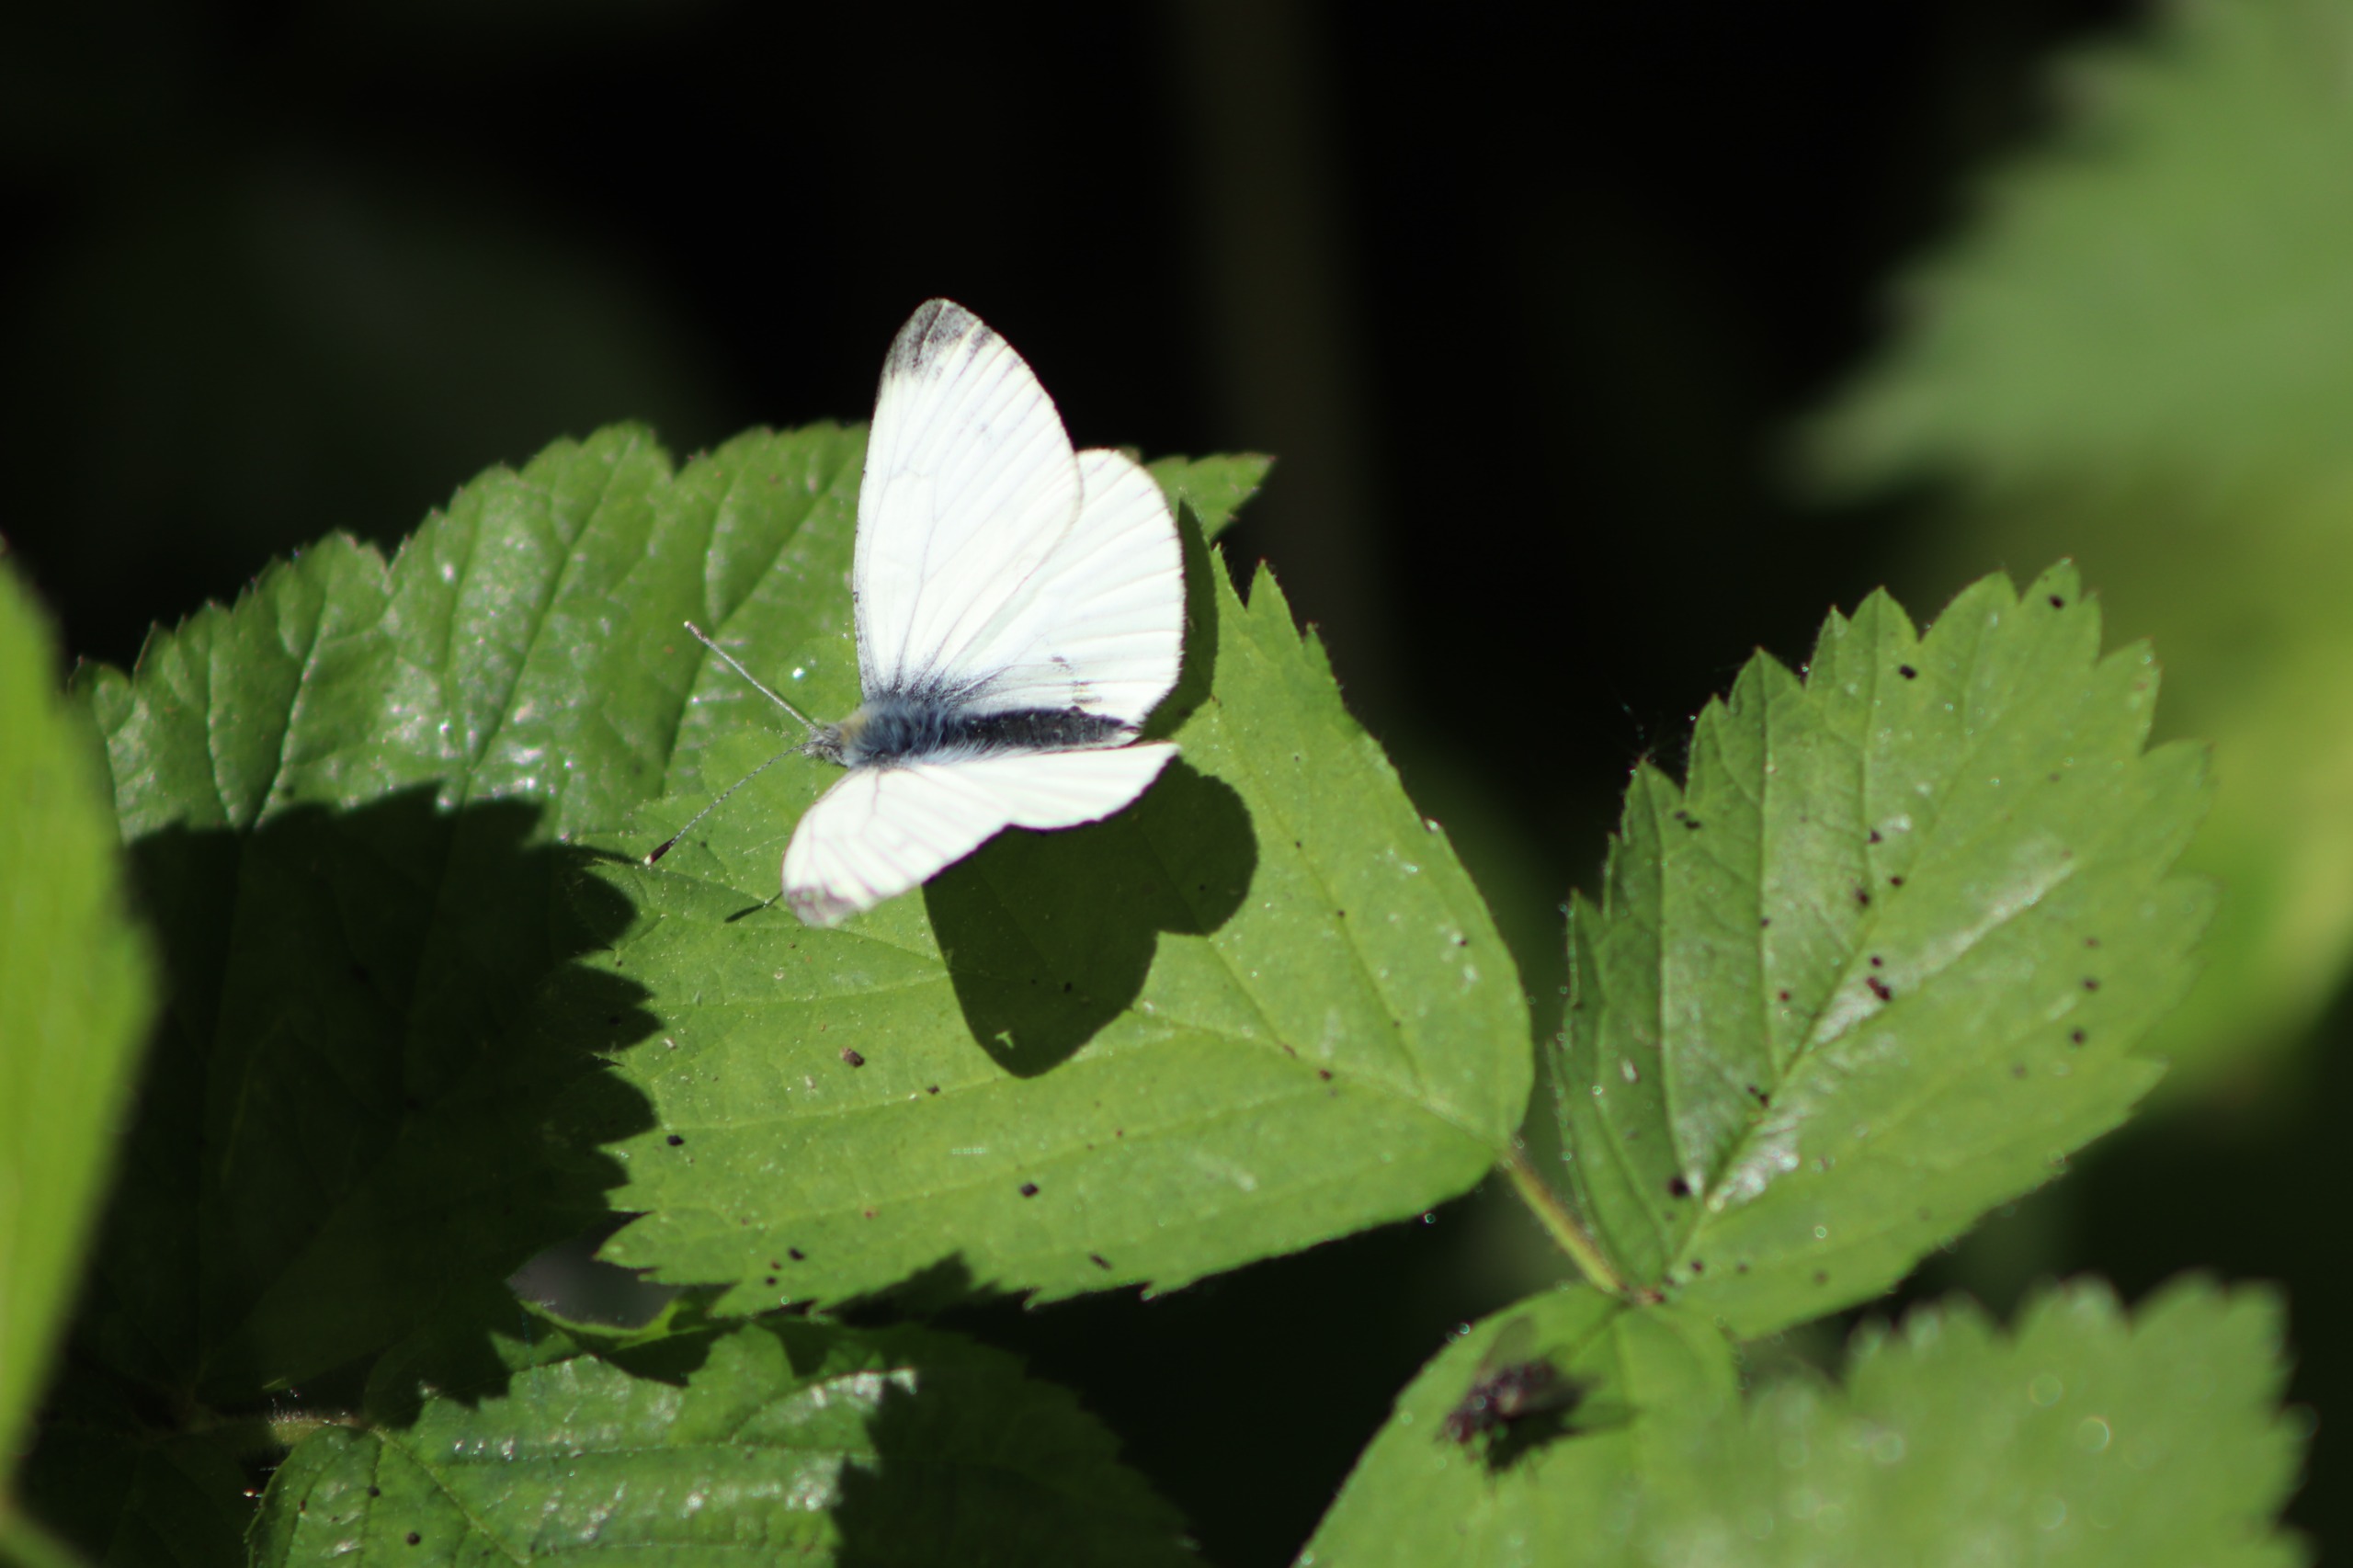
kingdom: Animalia
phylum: Arthropoda
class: Insecta
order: Lepidoptera
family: Pieridae
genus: Pieris
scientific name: Pieris napi
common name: Grønåret kålsommerfugl
